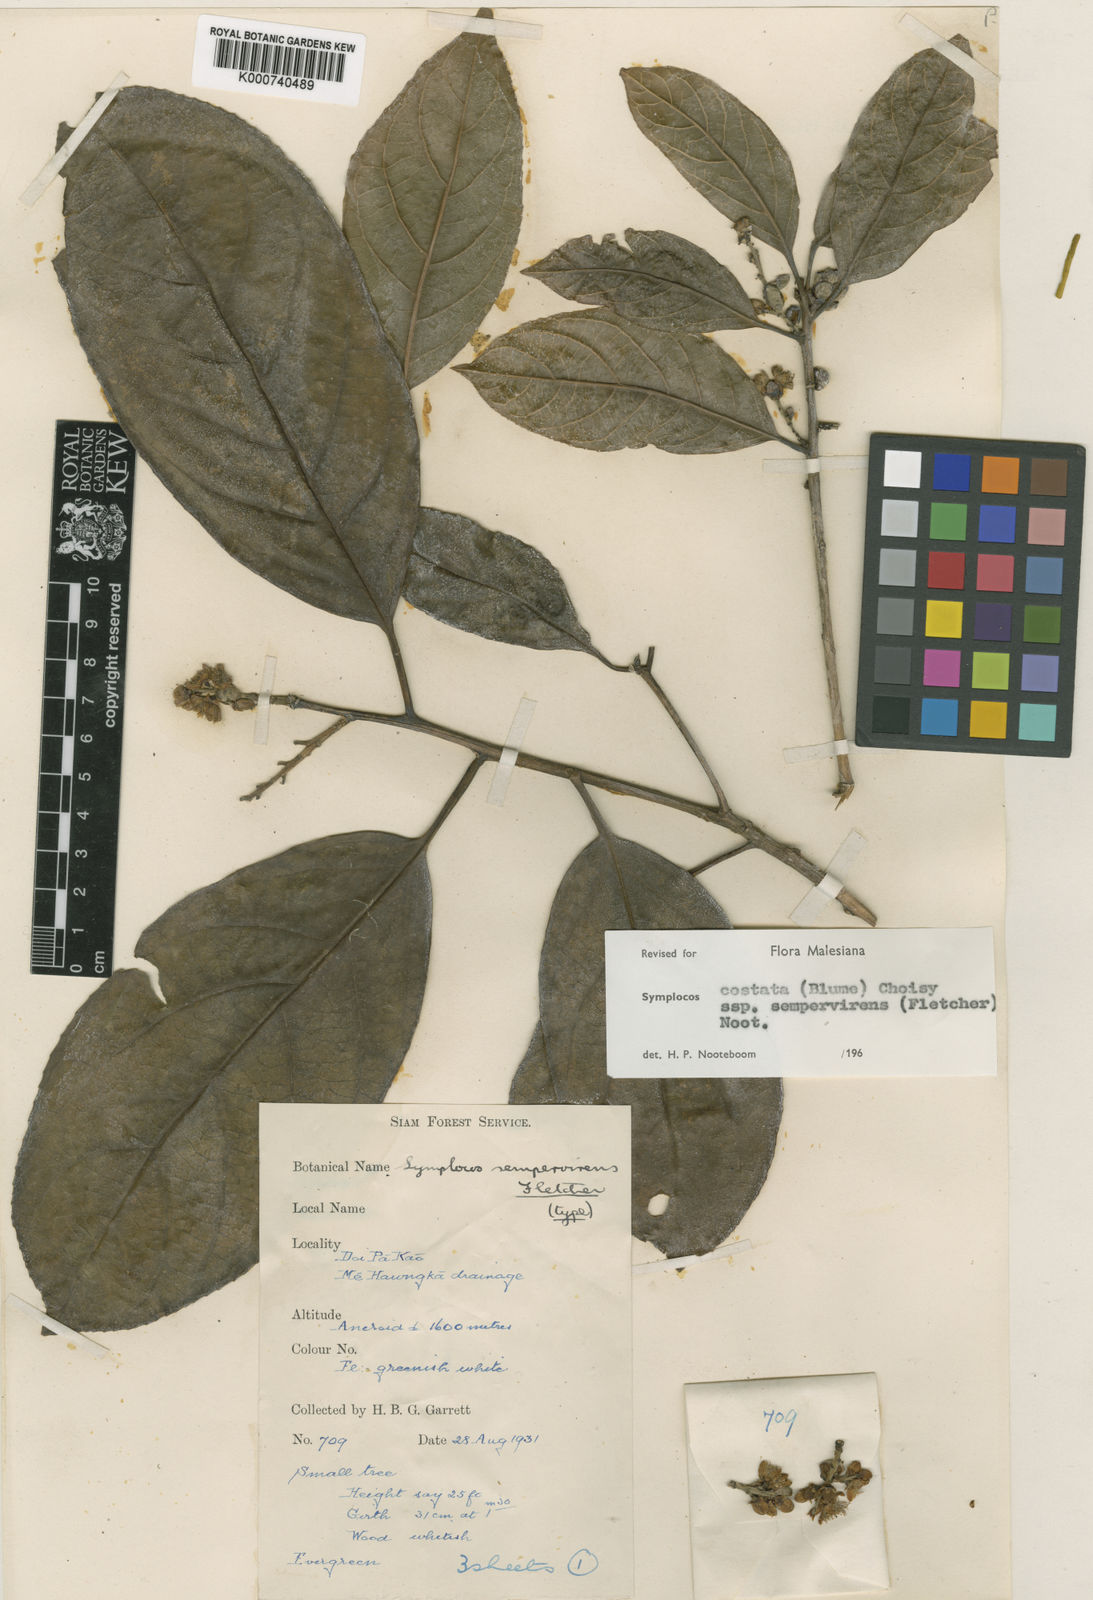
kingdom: Plantae
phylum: Tracheophyta
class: Magnoliopsida
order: Ericales
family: Symplocaceae
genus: Symplocos
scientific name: Symplocos costata
